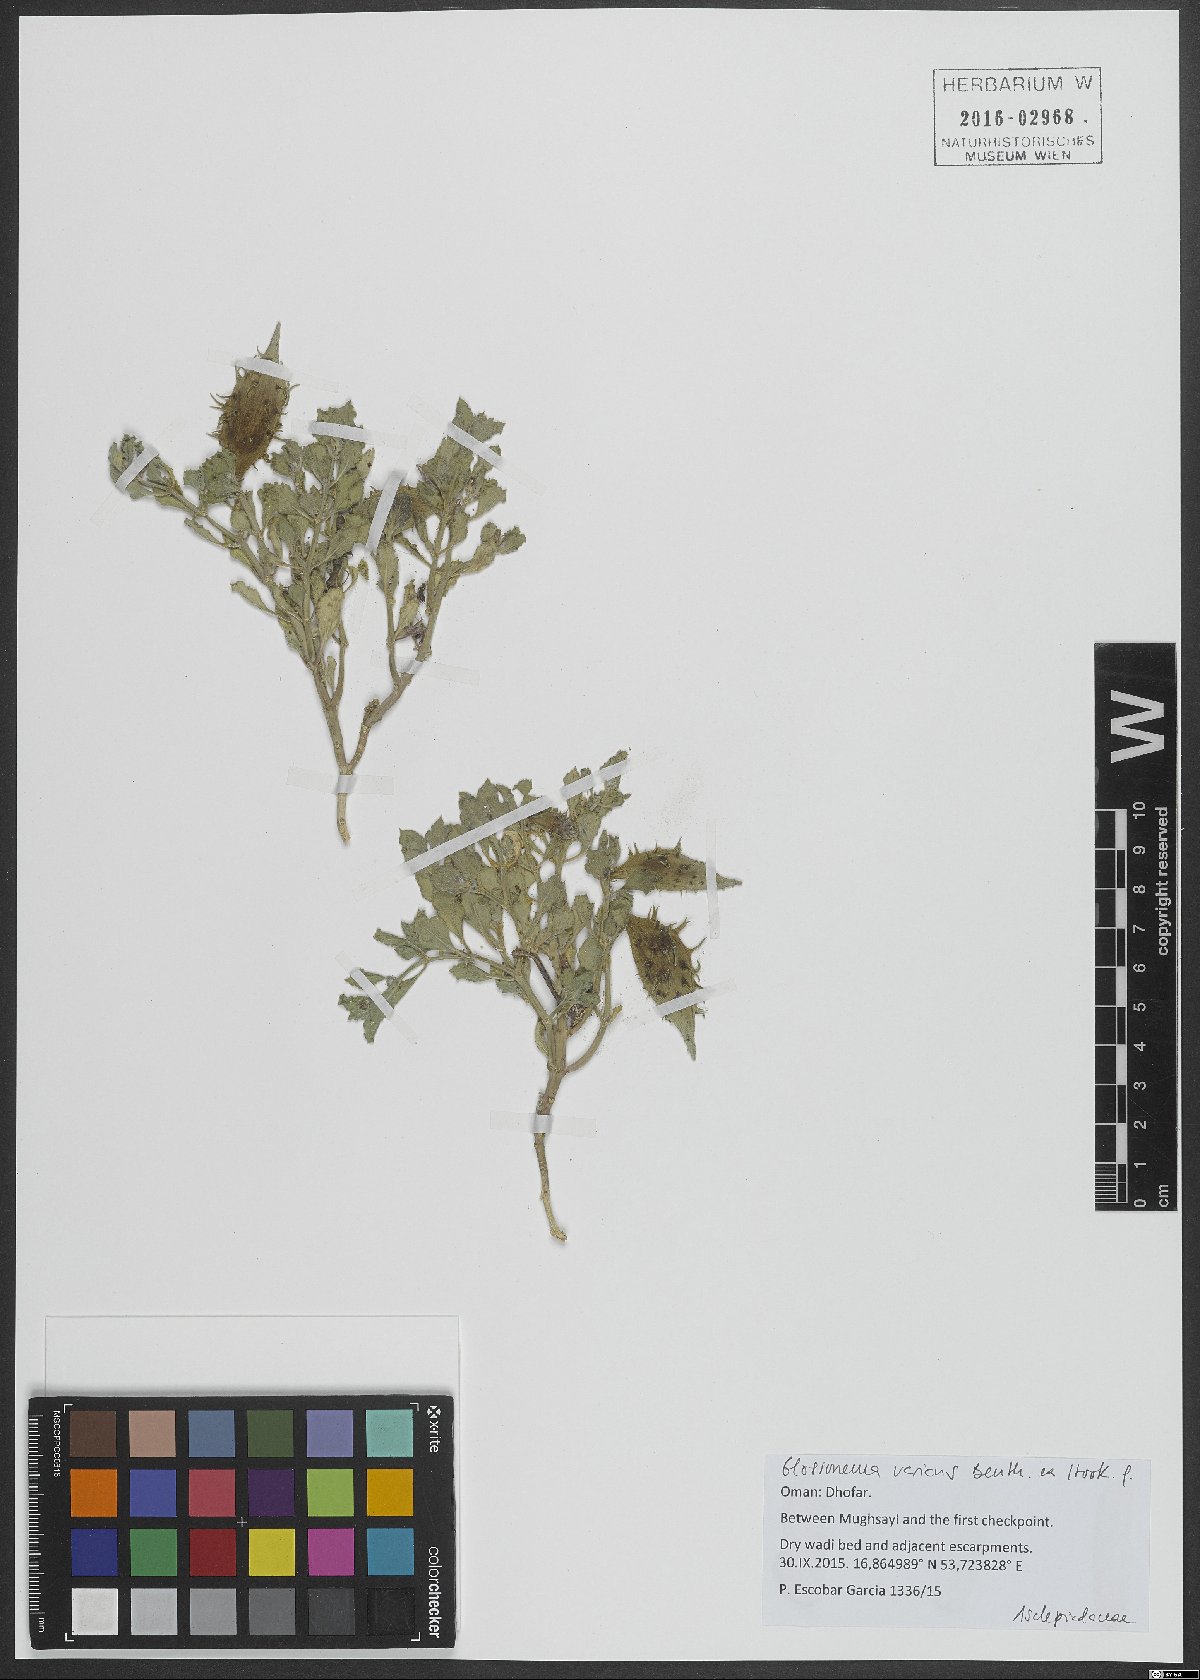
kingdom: Plantae
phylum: Tracheophyta
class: Magnoliopsida
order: Gentianales
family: Apocynaceae
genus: Cynanchum
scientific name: Cynanchum varians
